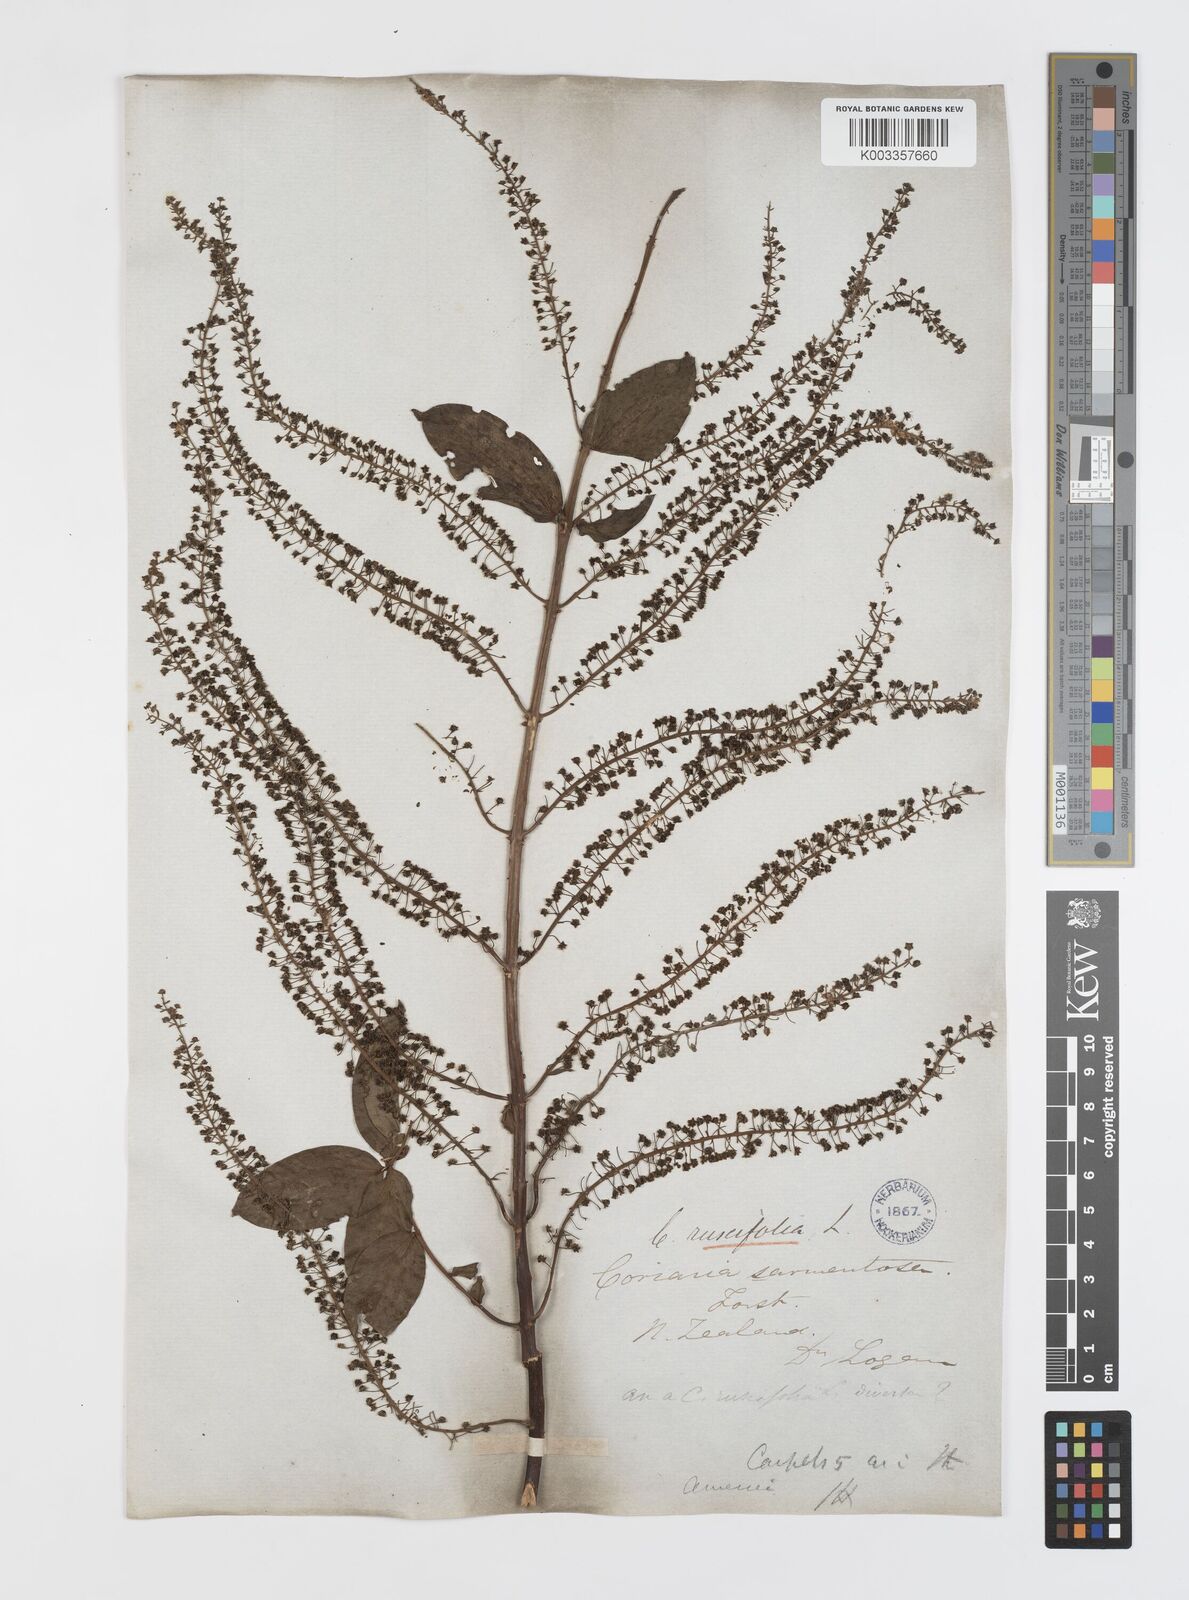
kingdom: Plantae
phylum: Tracheophyta
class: Magnoliopsida
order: Cucurbitales
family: Coriariaceae
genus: Coriaria
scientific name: Coriaria ruscifolia
